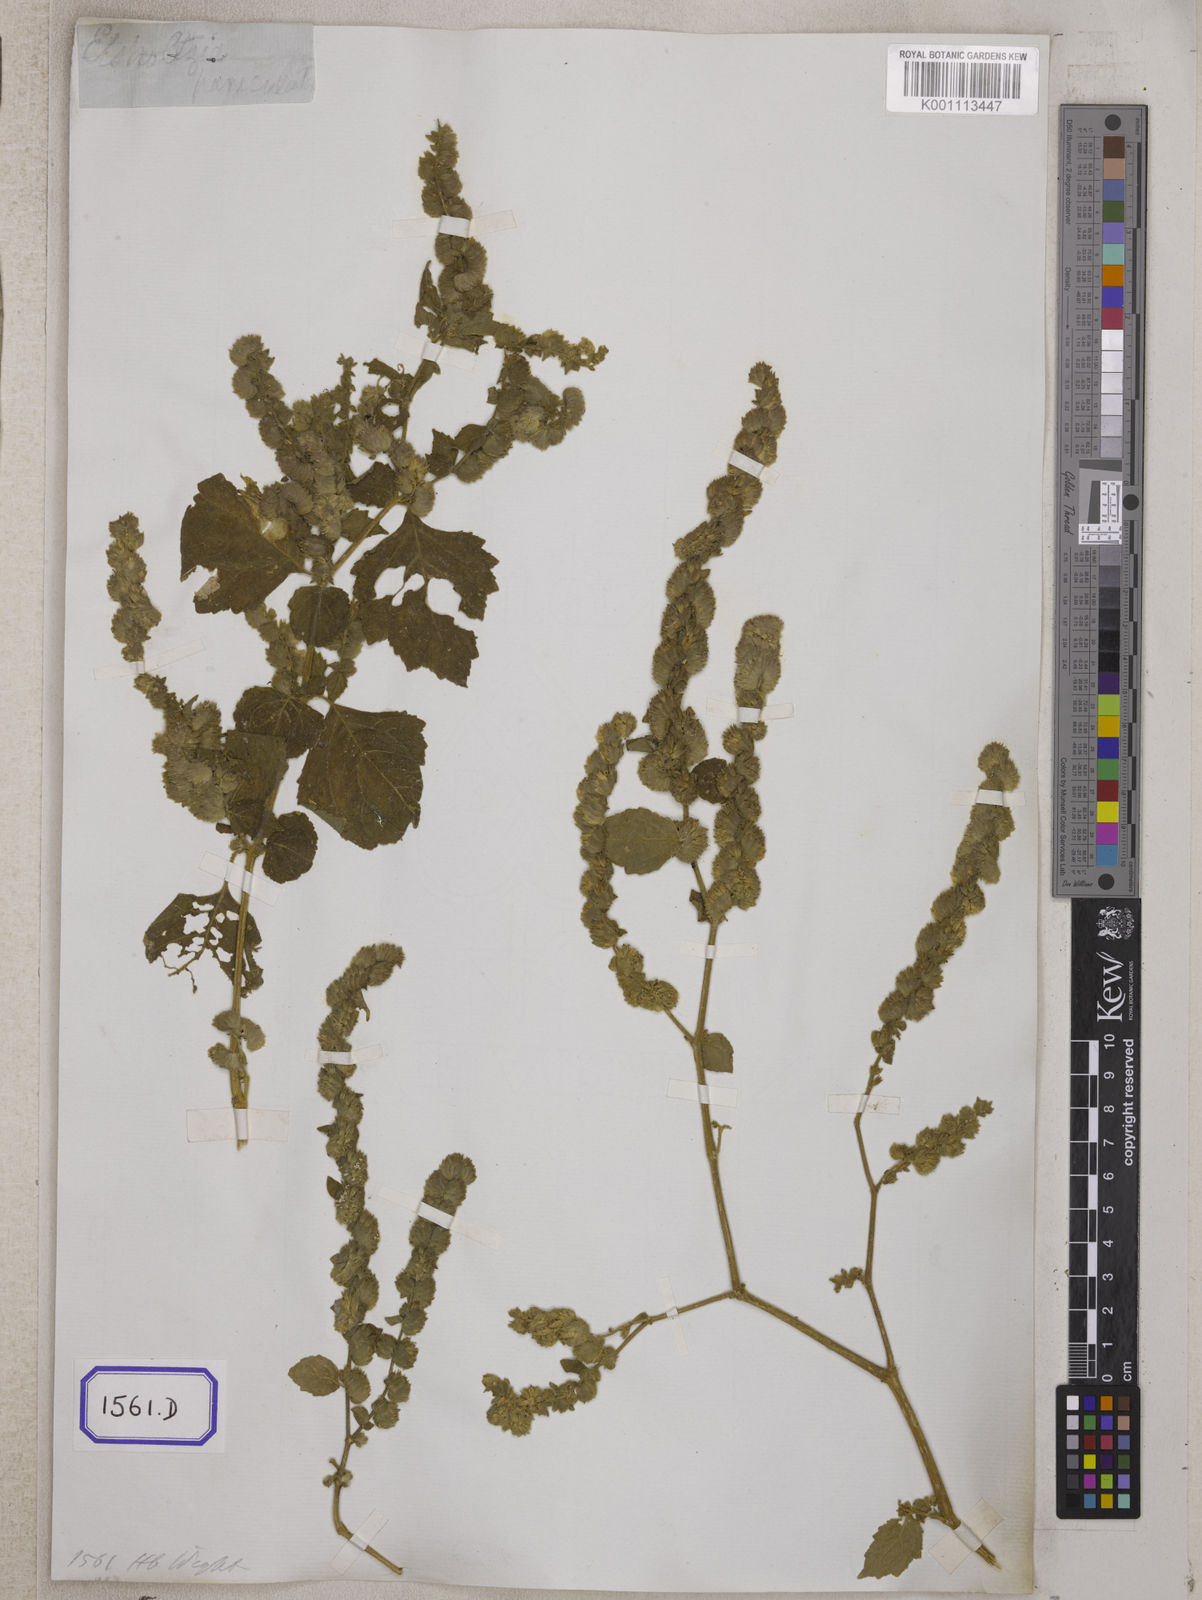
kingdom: Plantae
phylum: Tracheophyta
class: Magnoliopsida
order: Lamiales
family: Lamiaceae
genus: Pogostemon
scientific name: Pogostemon paniculatus
